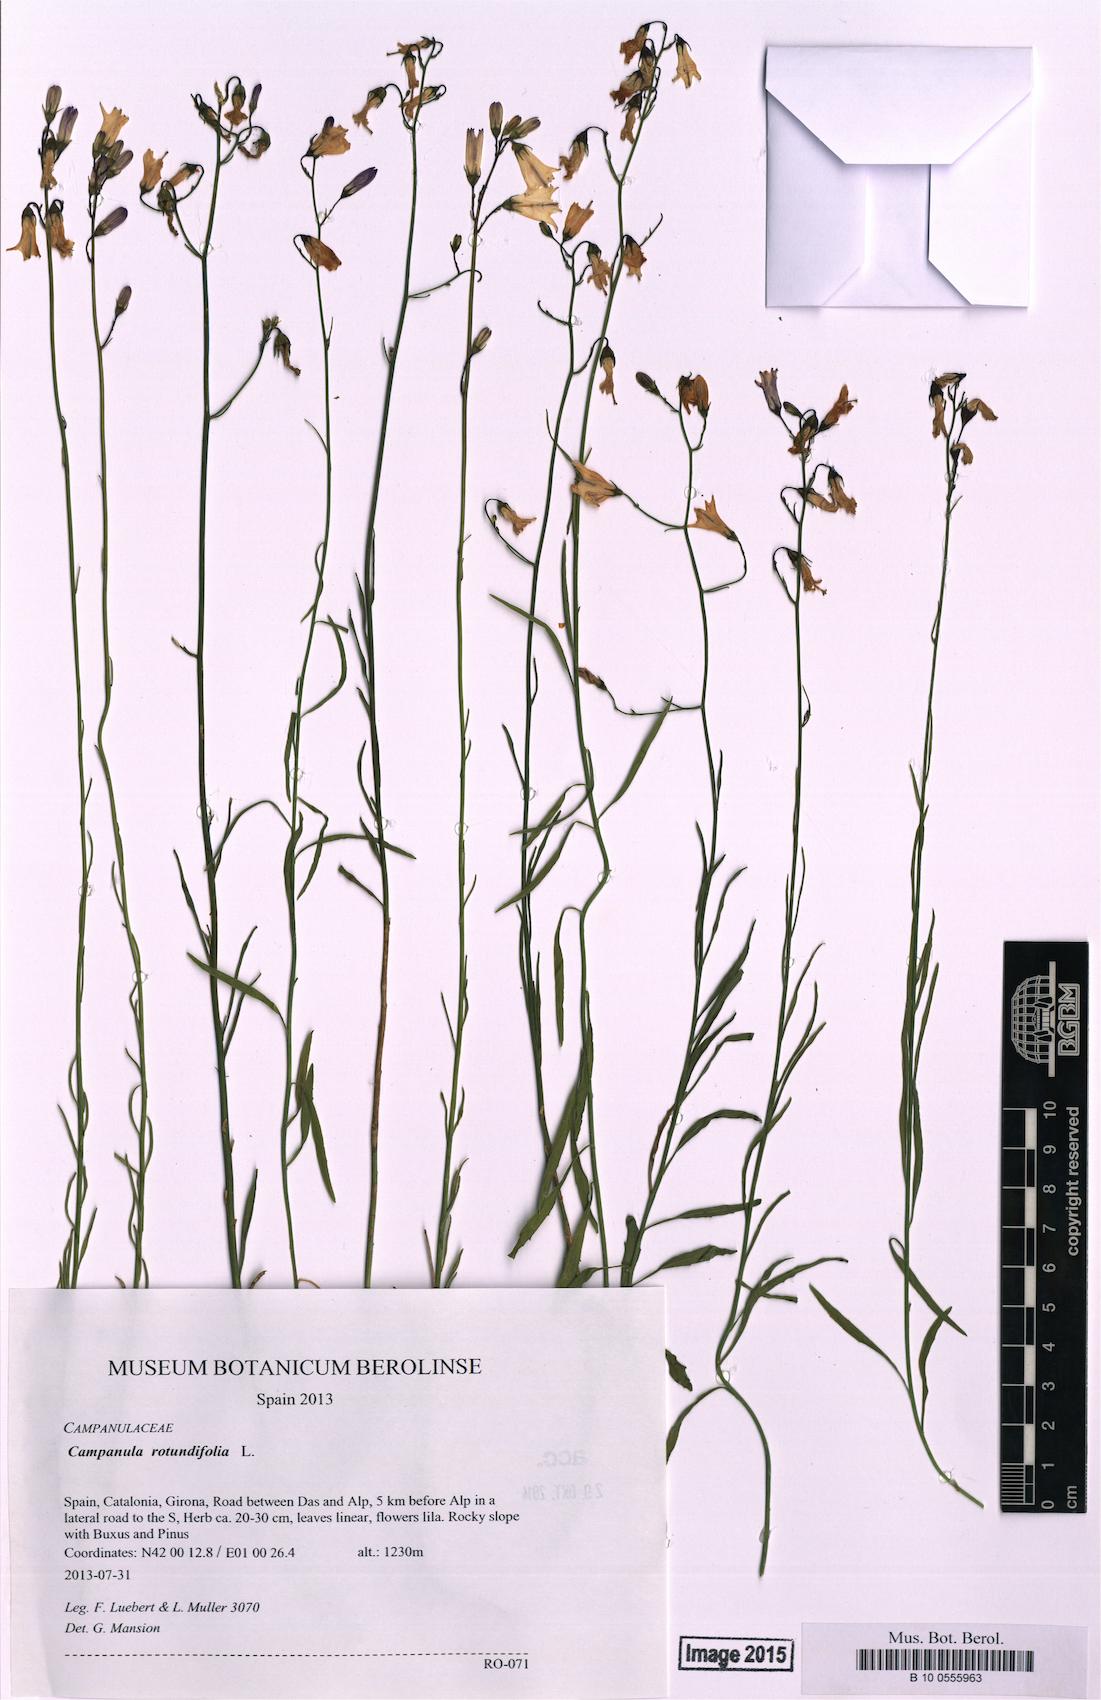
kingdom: Plantae
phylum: Tracheophyta
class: Magnoliopsida
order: Asterales
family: Campanulaceae
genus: Campanula
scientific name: Campanula rotundifolia
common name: Harebell
